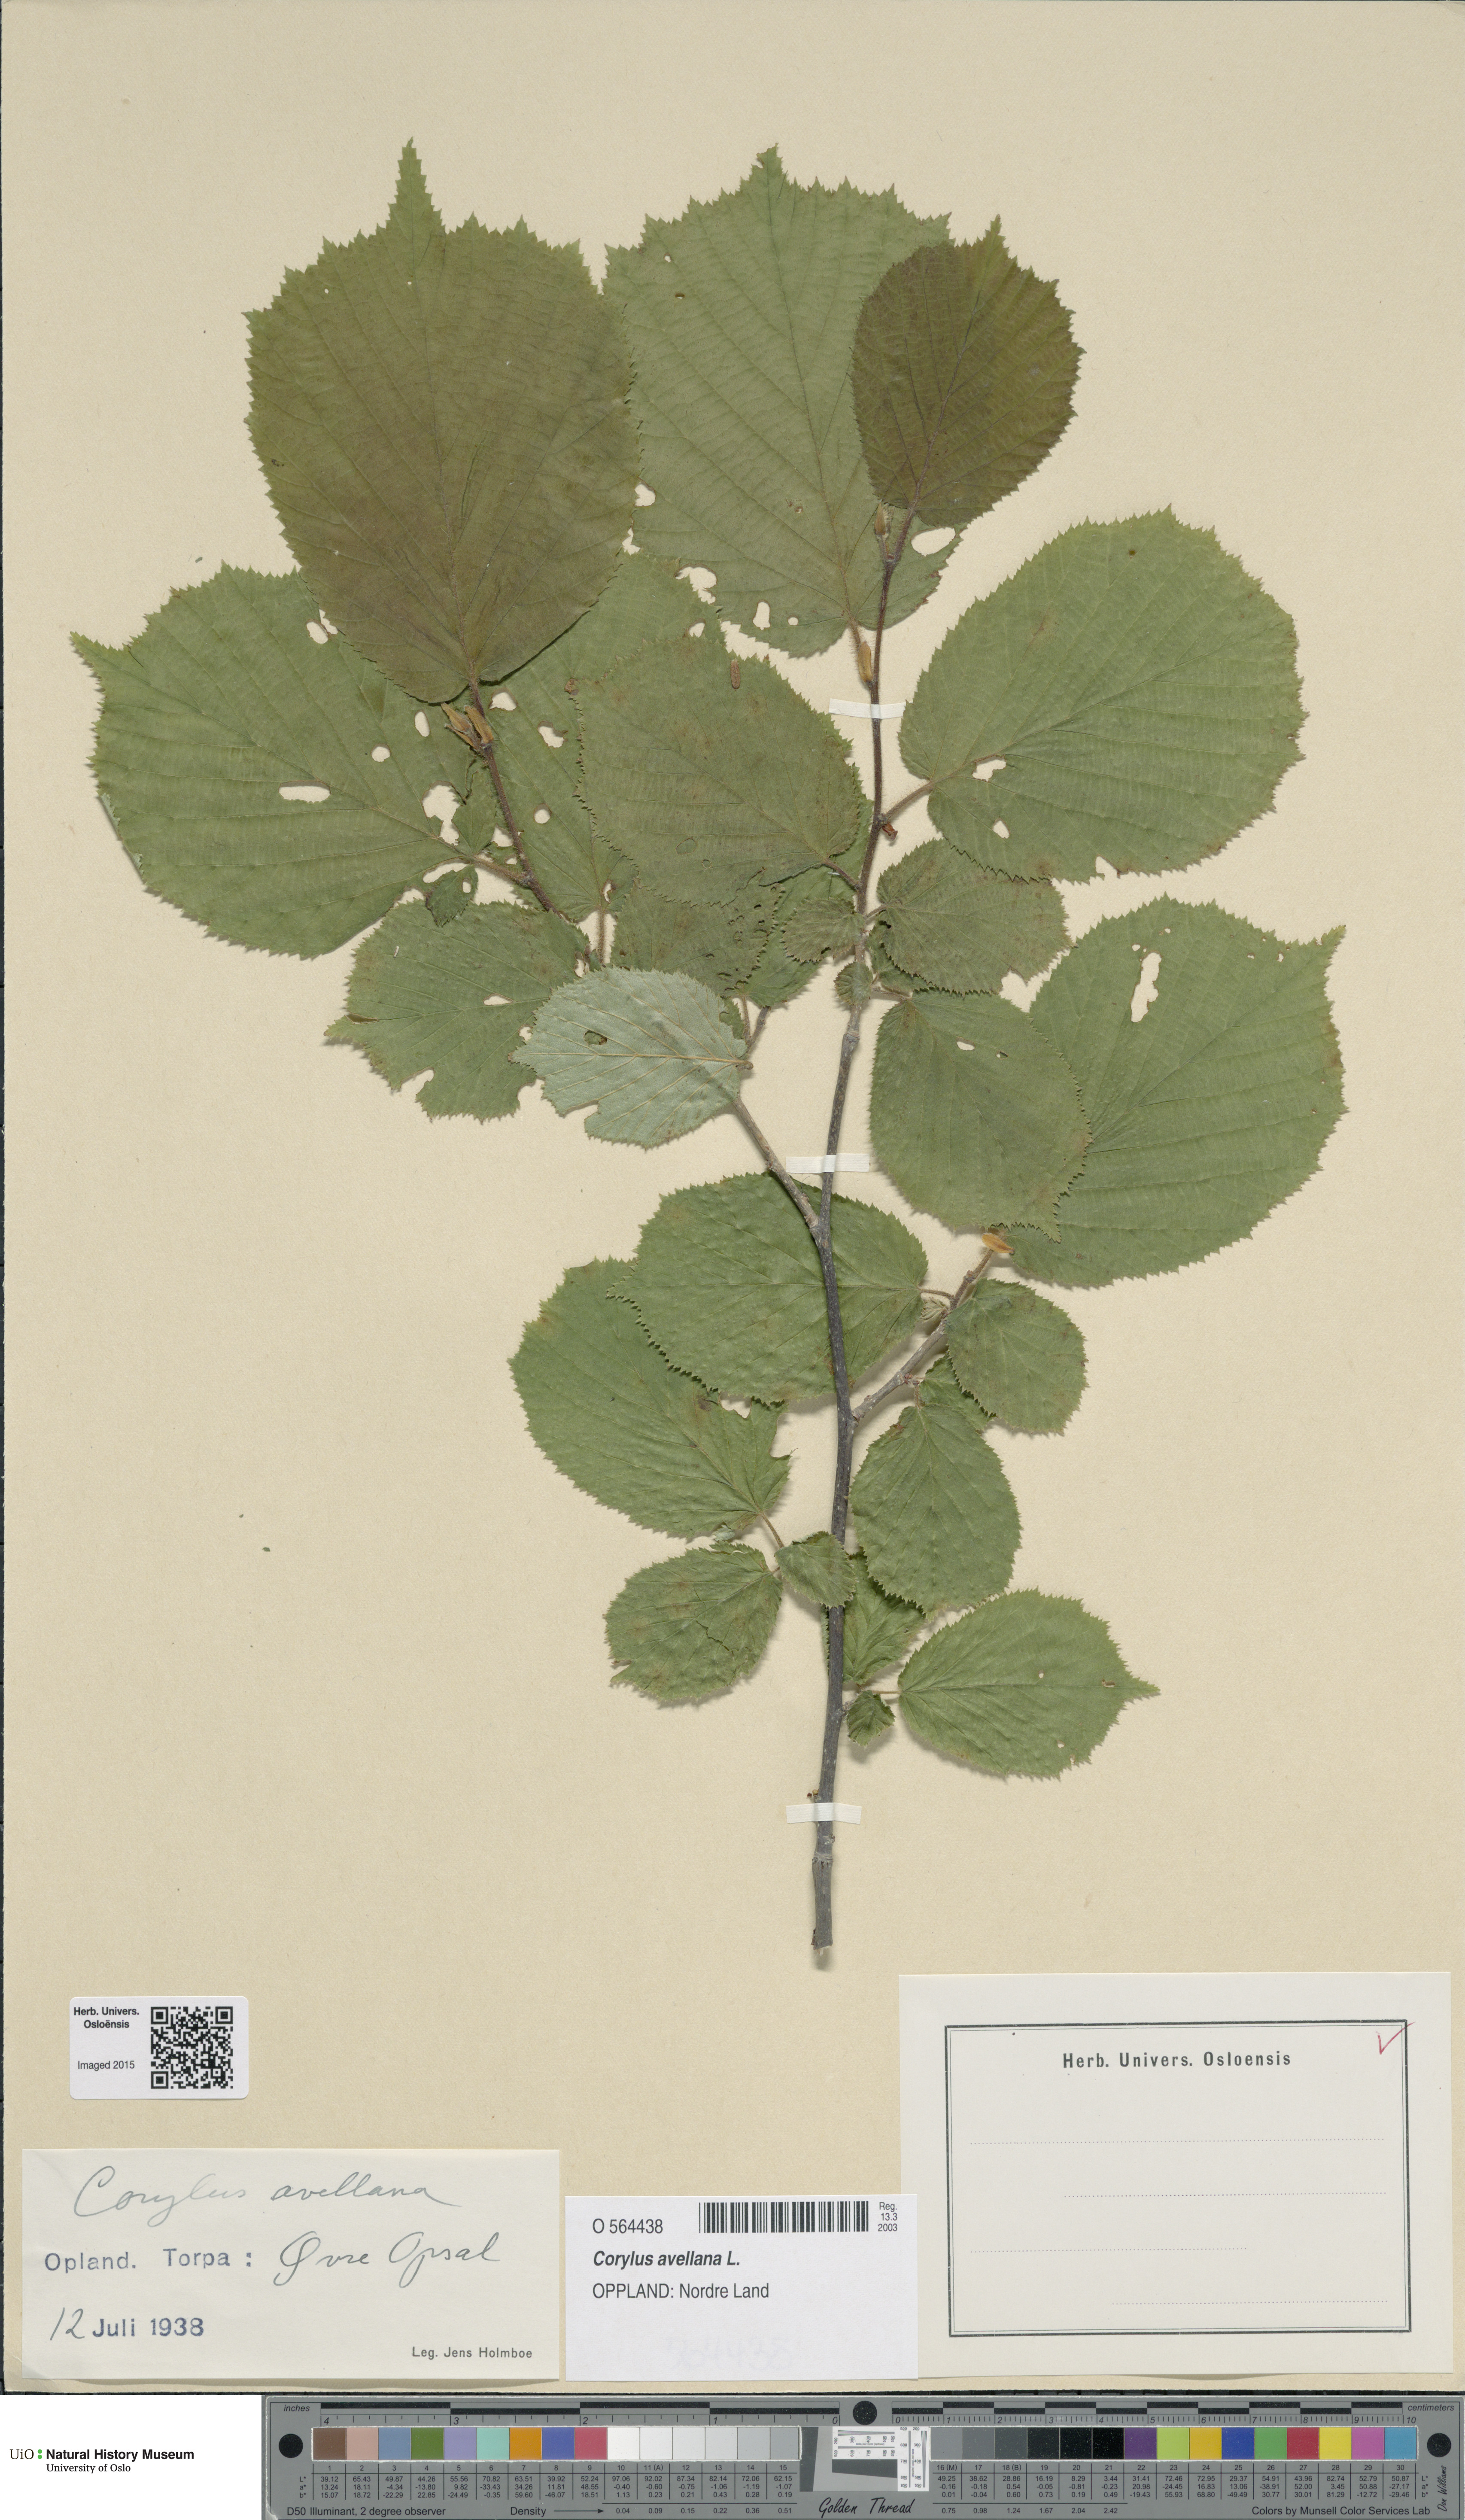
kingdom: Plantae
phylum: Tracheophyta
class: Magnoliopsida
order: Fagales
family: Betulaceae
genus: Corylus
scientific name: Corylus avellana
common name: European hazel
